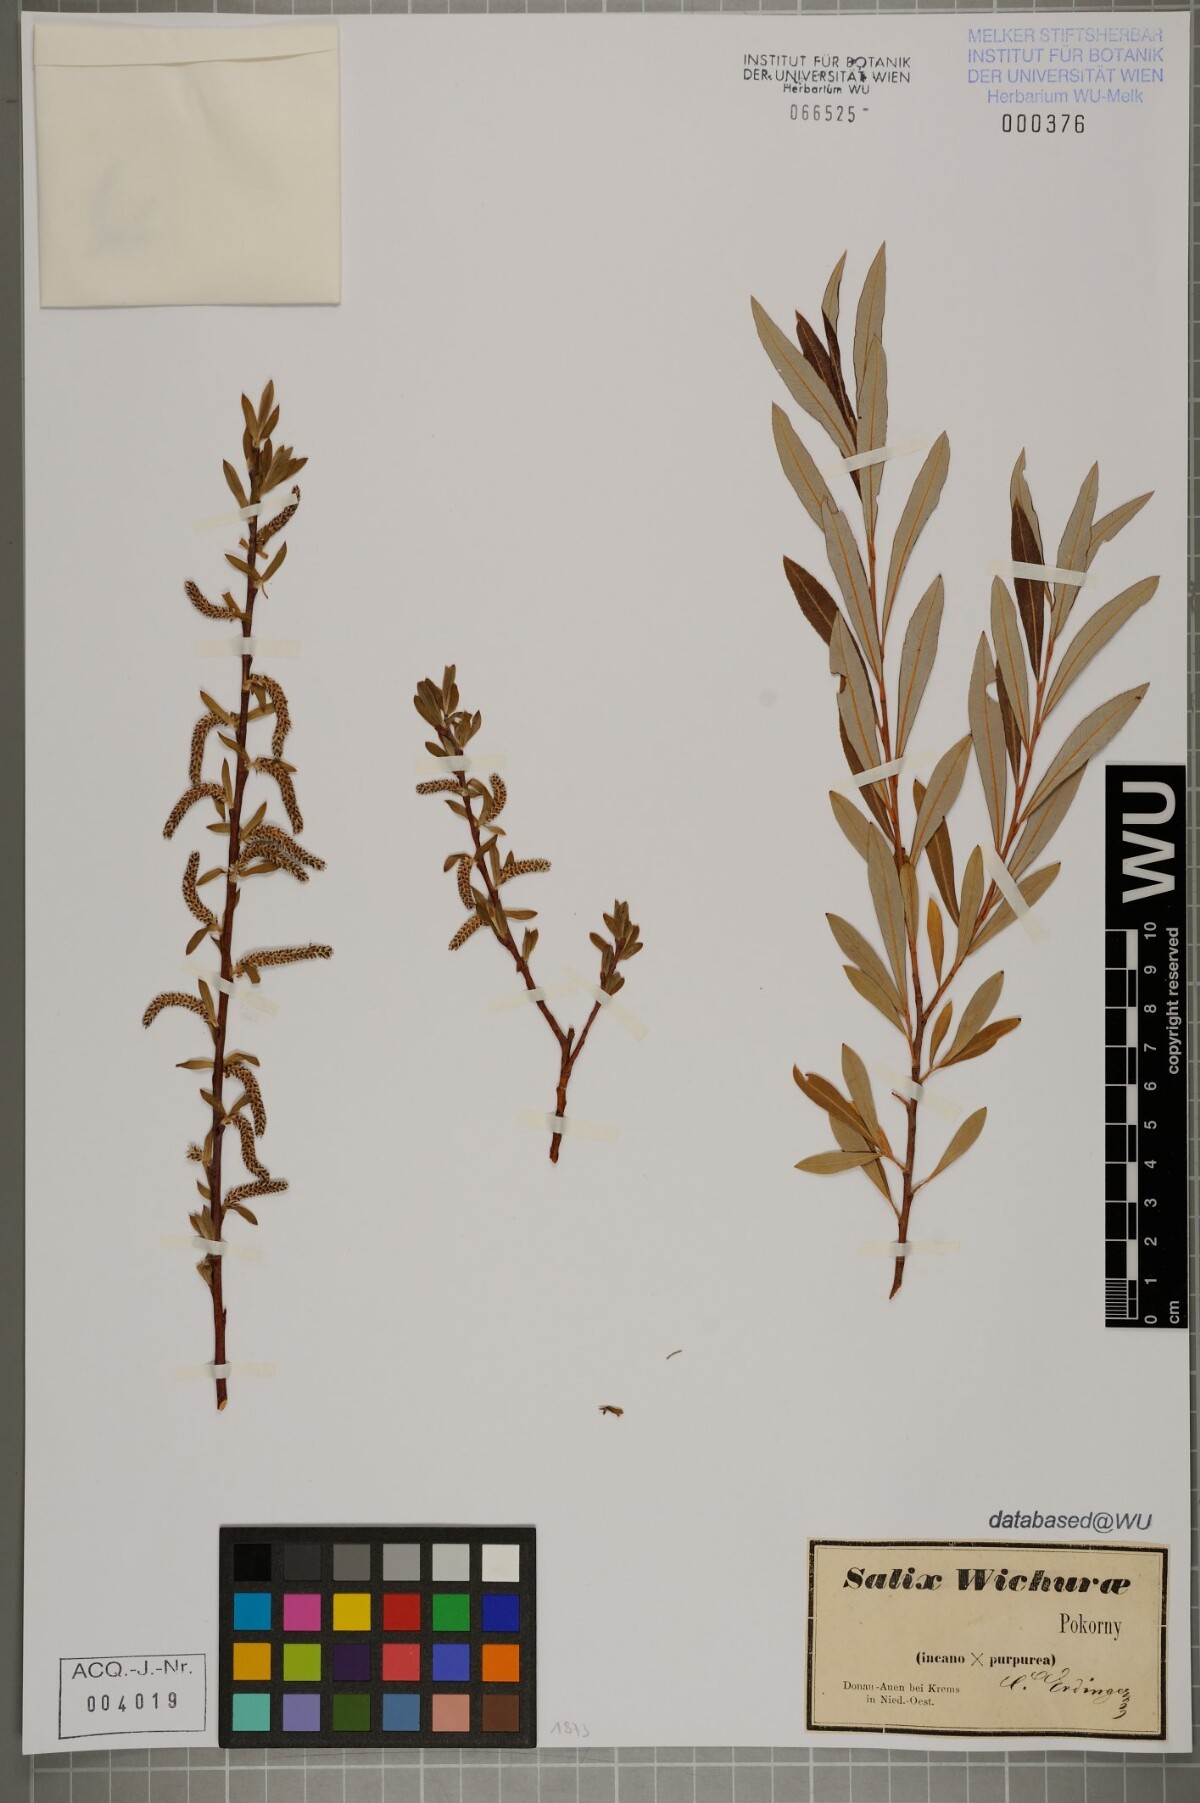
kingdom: Plantae
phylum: Tracheophyta
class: Magnoliopsida
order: Malpighiales
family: Salicaceae
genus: Salix
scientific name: Salix bifida
